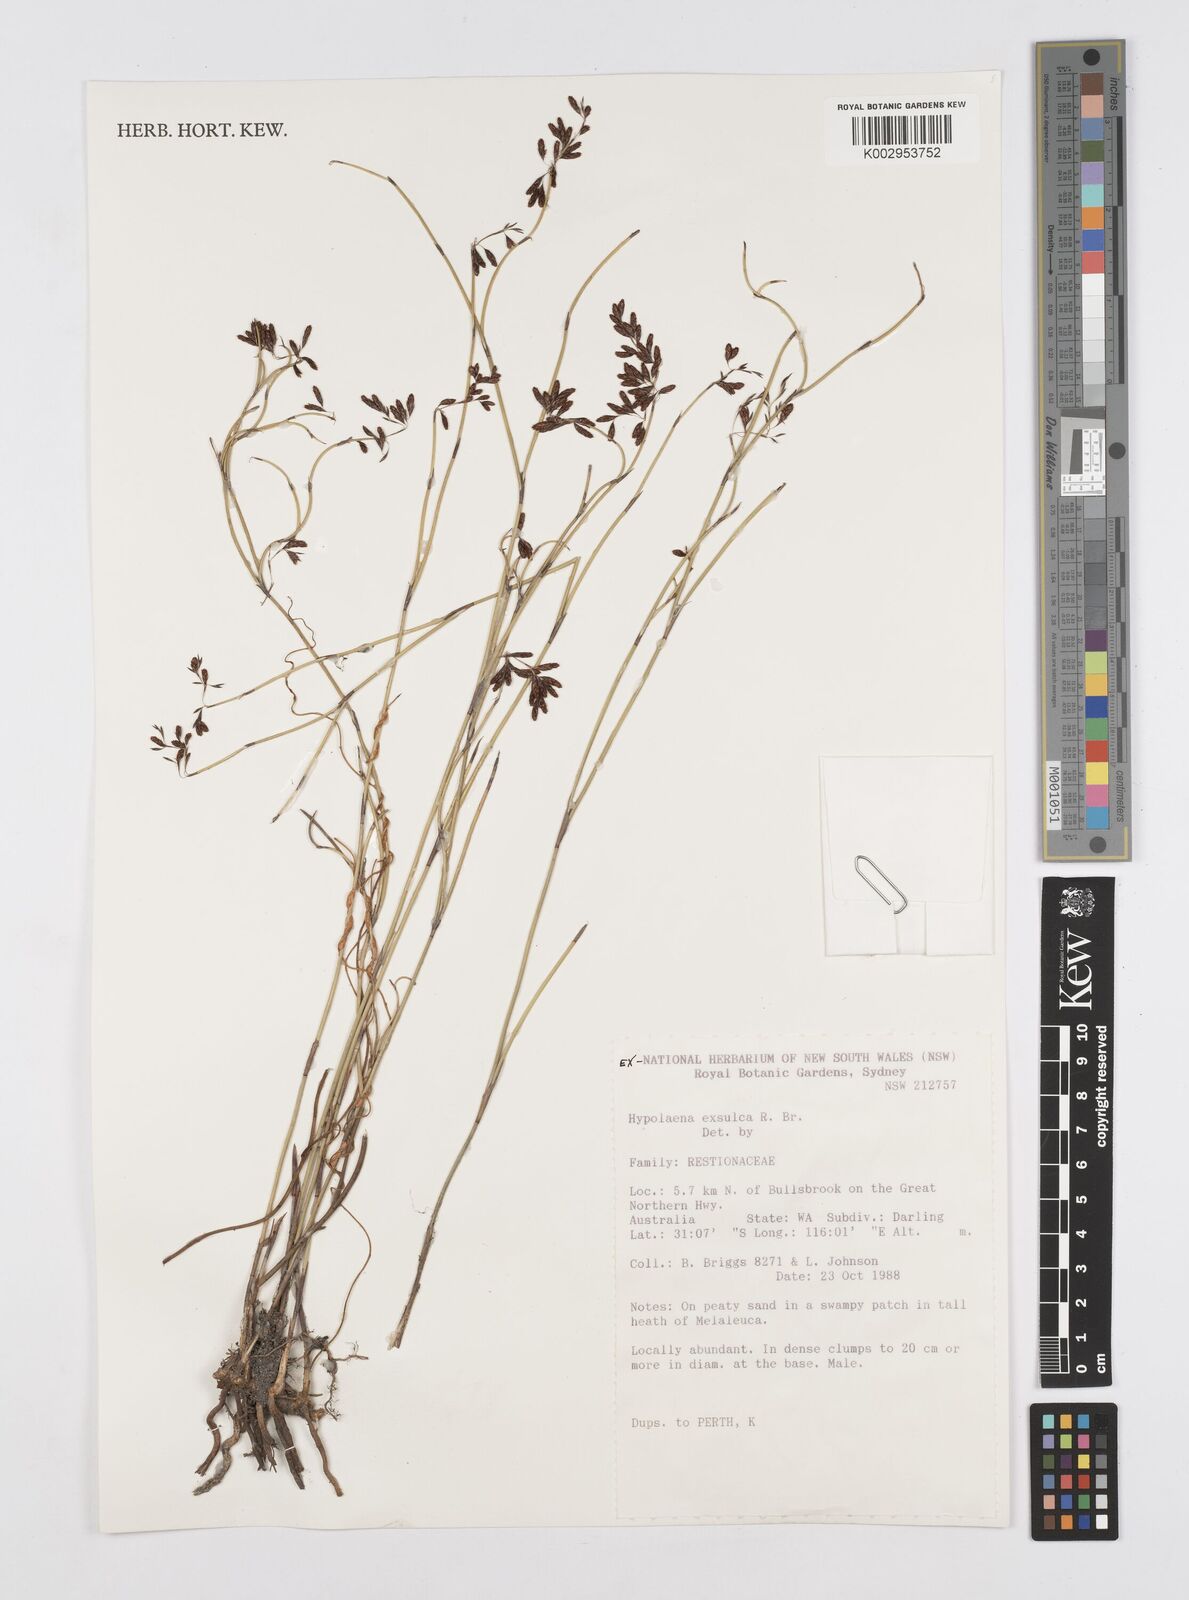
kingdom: Plantae
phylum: Tracheophyta
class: Liliopsida
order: Poales
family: Restionaceae
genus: Hypolaena
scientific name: Hypolaena exsulca
